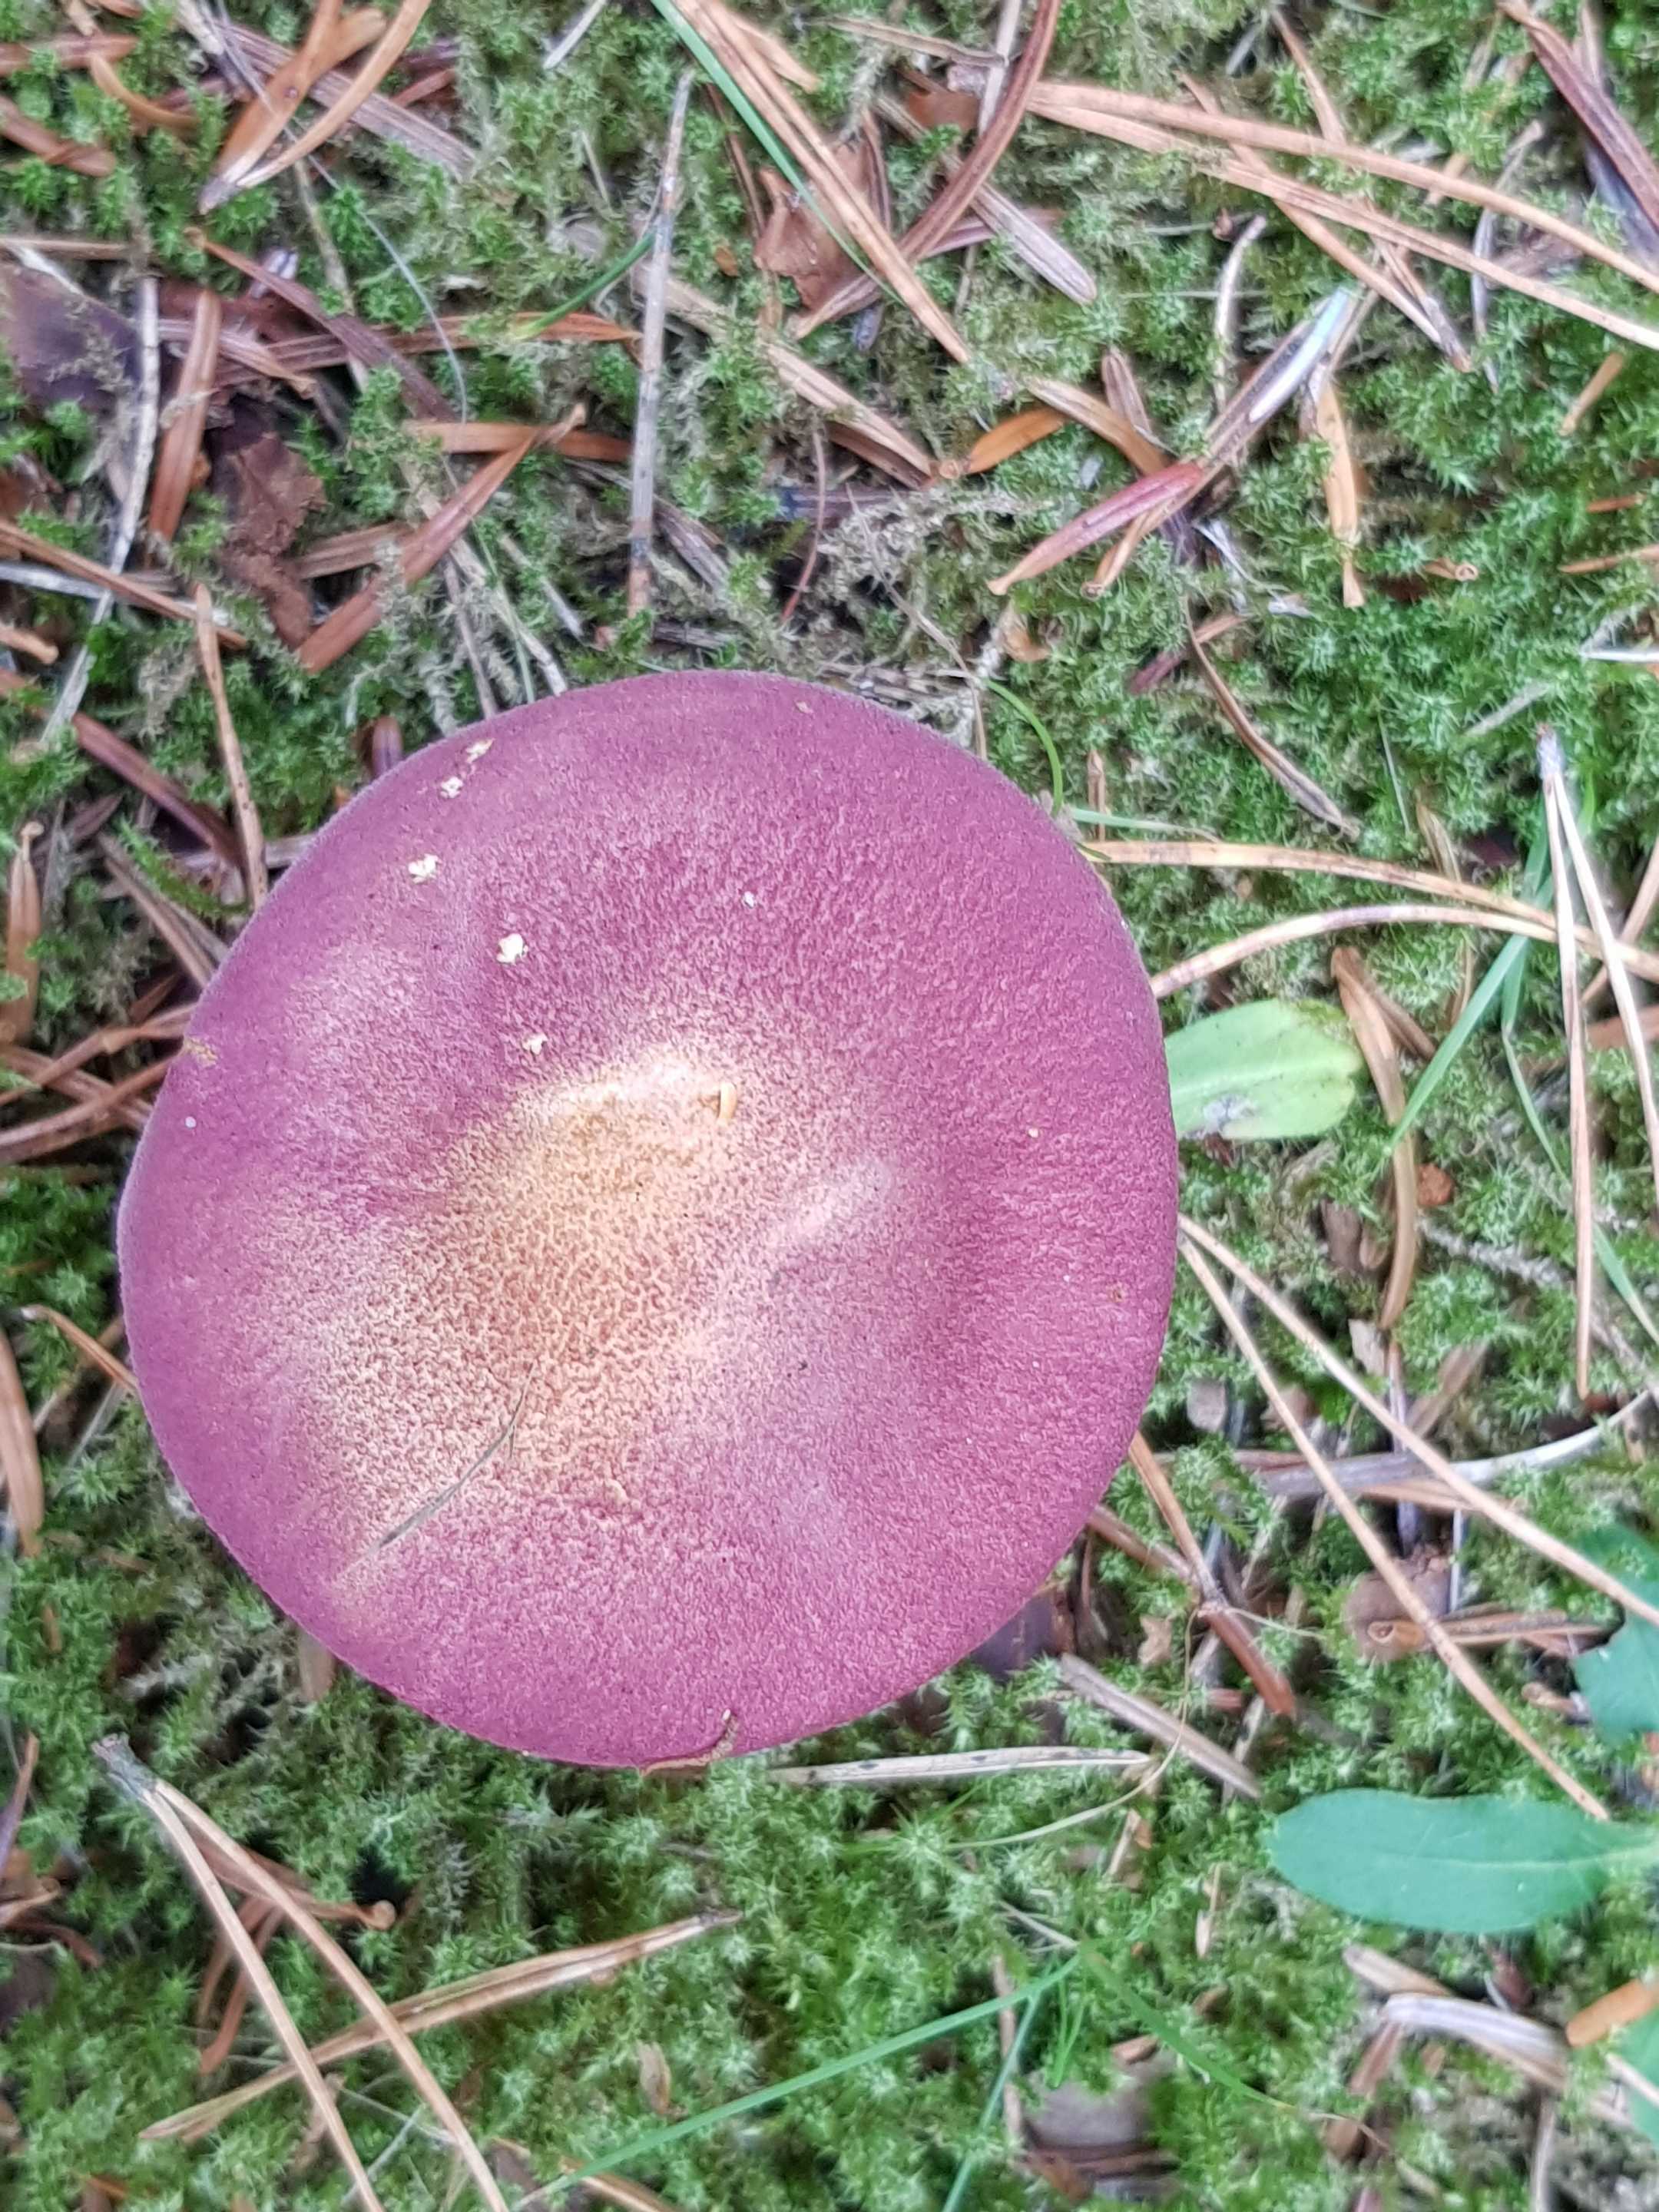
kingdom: Fungi
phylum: Basidiomycota
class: Agaricomycetes
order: Agaricales
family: Tricholomataceae
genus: Tricholomopsis
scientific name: Tricholomopsis rutilans
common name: purpur-væbnerhat
